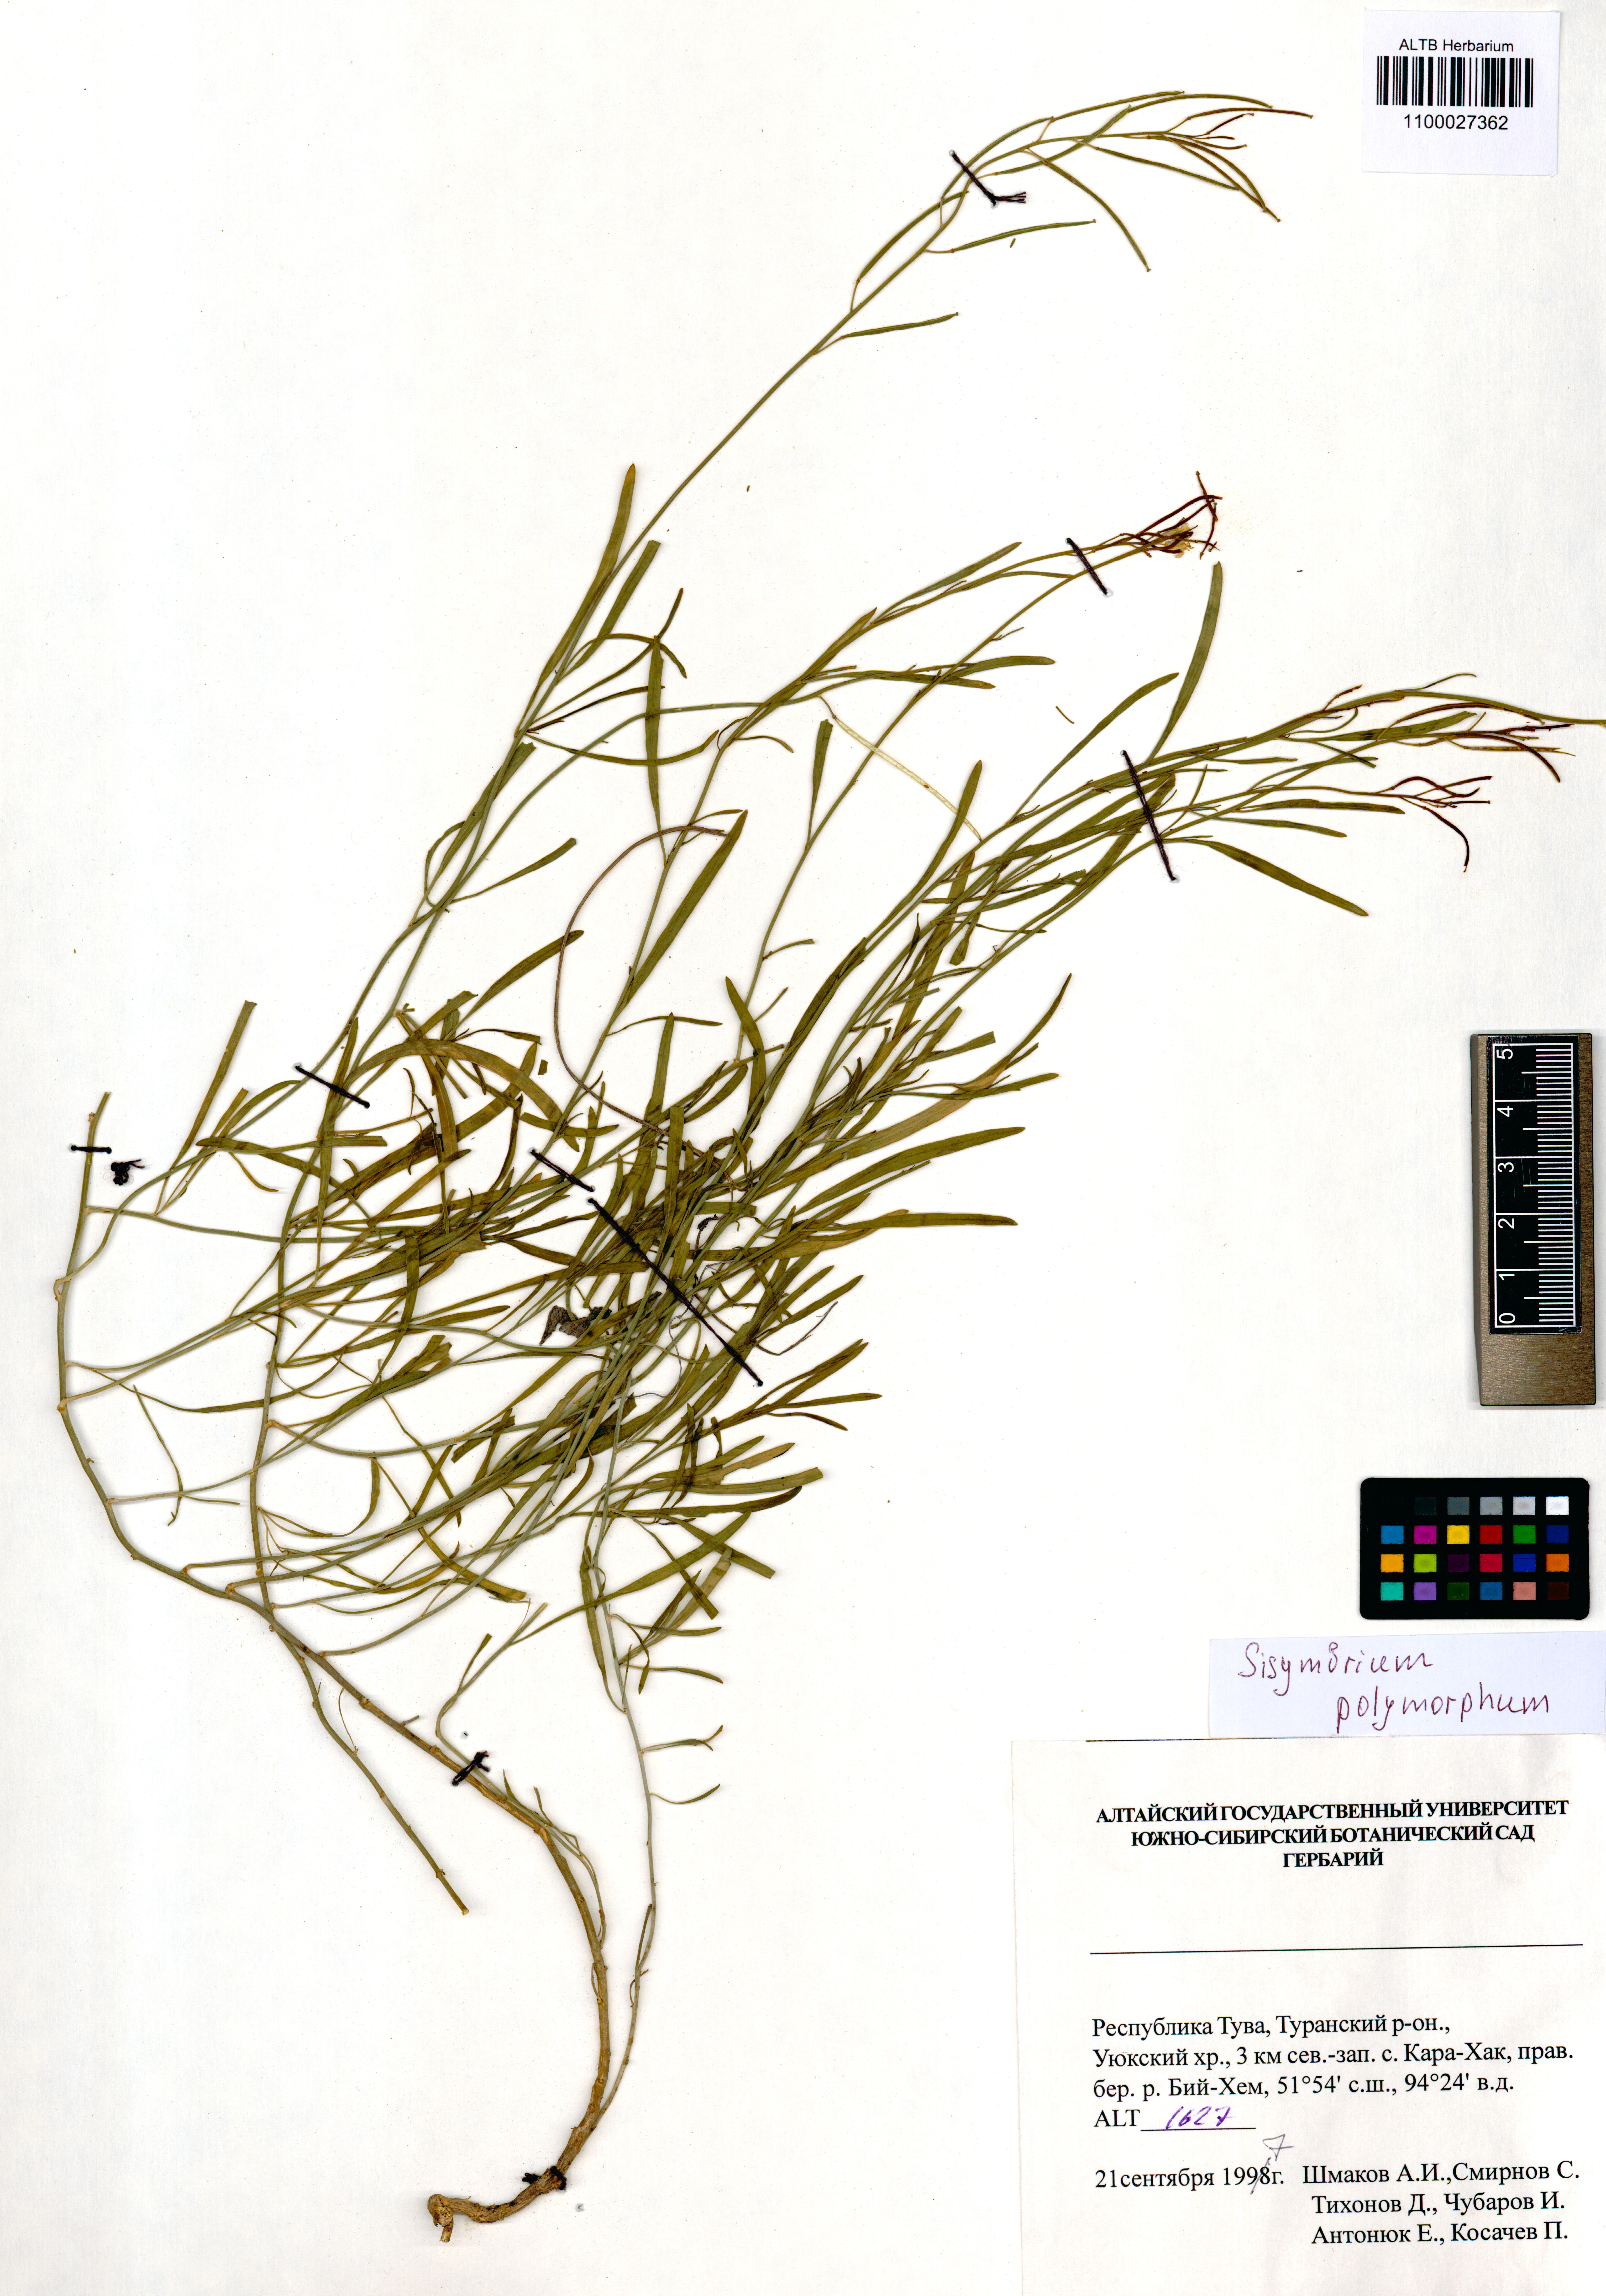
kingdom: Plantae
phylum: Tracheophyta
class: Magnoliopsida
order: Brassicales
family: Brassicaceae
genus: Sisymbrium
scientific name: Sisymbrium polymorphum
